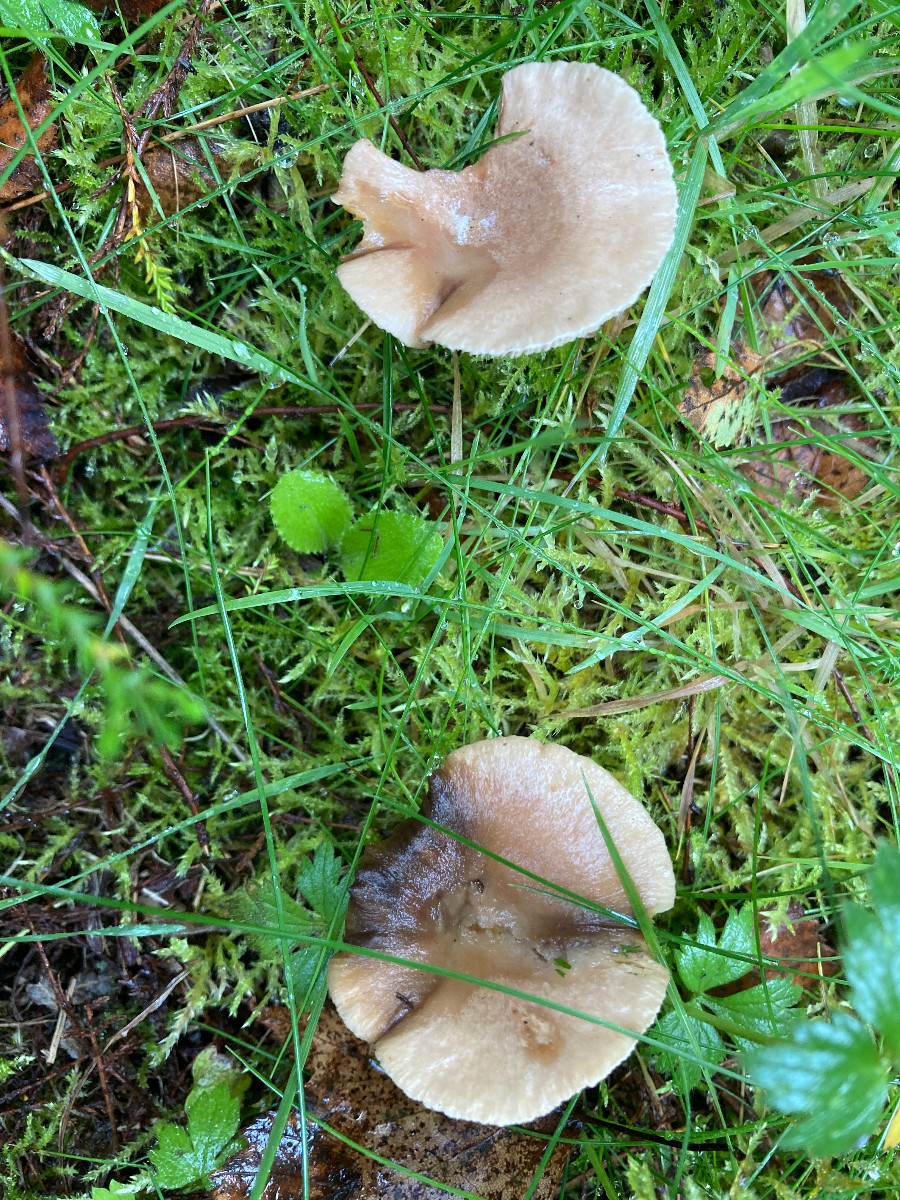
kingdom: Fungi
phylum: Basidiomycota
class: Agaricomycetes
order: Russulales
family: Russulaceae
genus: Lactarius
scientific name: Lactarius glyciosmus
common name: kokos-mælkehat
